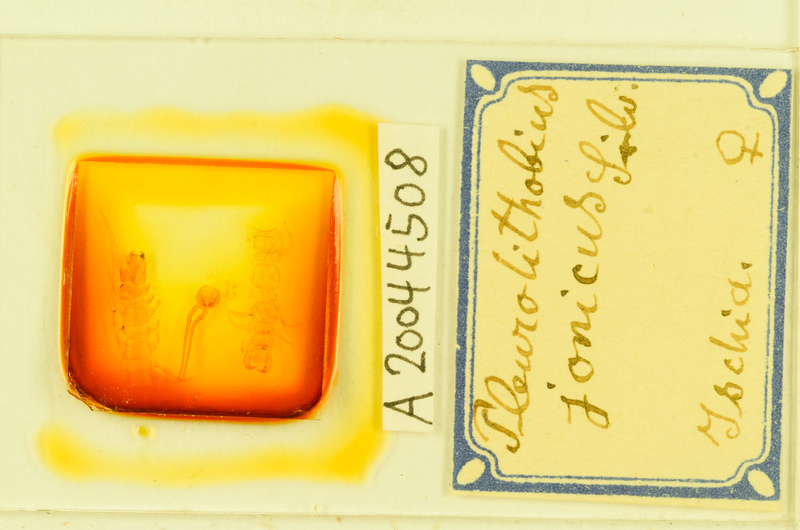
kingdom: Animalia
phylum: Arthropoda
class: Chilopoda
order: Lithobiomorpha
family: Lithobiidae
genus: Pleurolithobius
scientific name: Pleurolithobius
